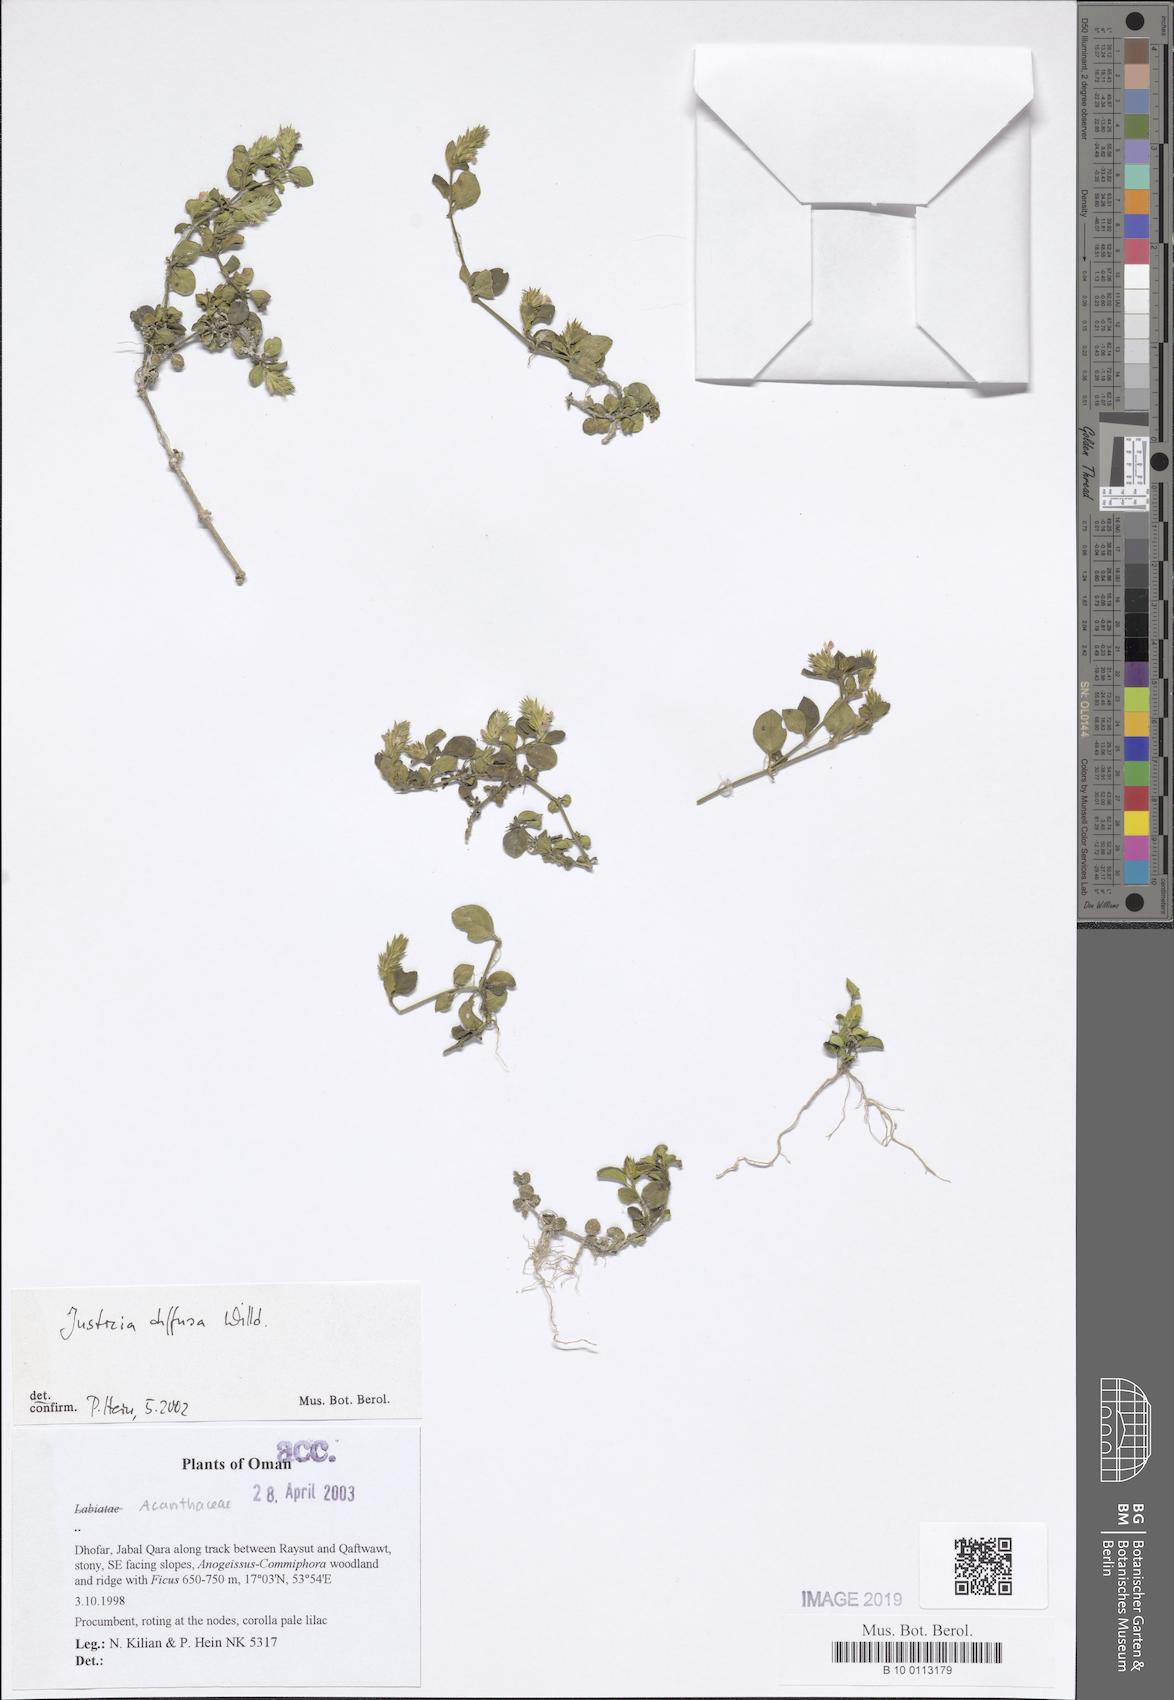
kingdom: Plantae
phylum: Tracheophyta
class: Magnoliopsida
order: Lamiales
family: Acanthaceae
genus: Rostellularia
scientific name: Rostellularia diffusa
